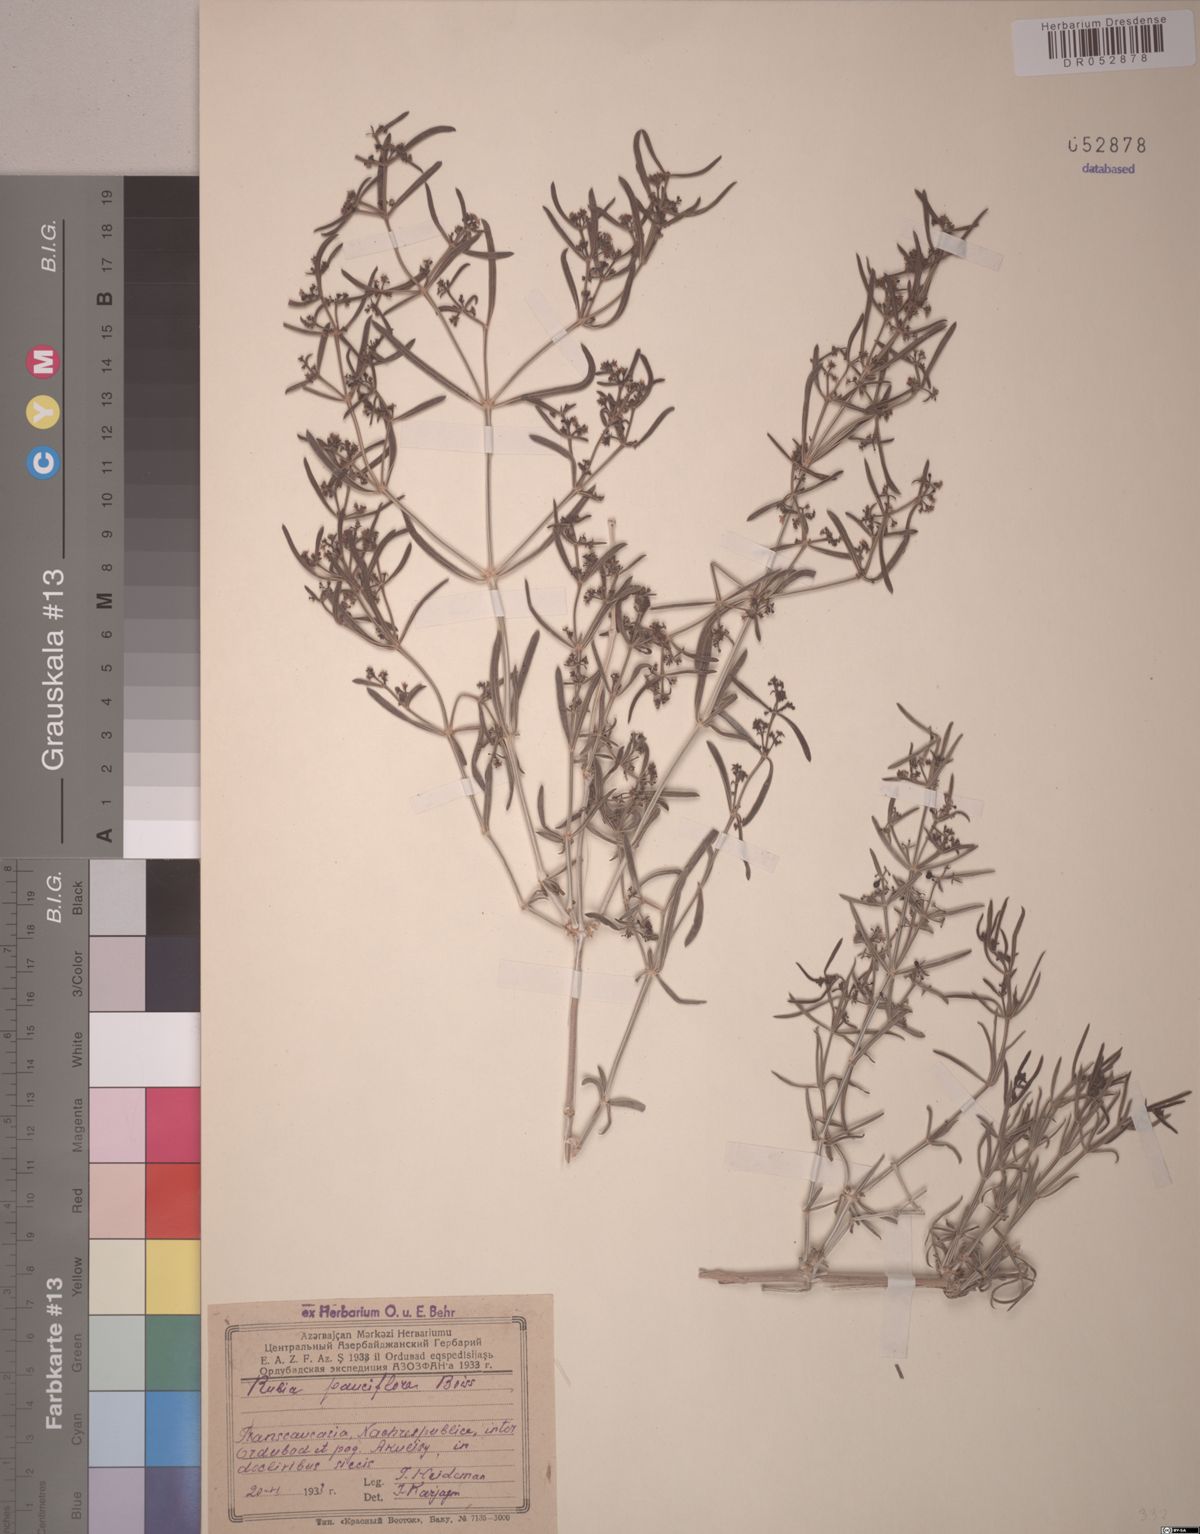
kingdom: Plantae
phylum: Tracheophyta
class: Magnoliopsida
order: Gentianales
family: Rubiaceae
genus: Rubia
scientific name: Rubia pauciflora
